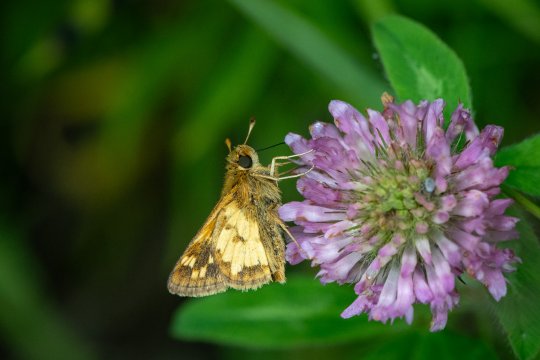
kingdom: Animalia
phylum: Arthropoda
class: Insecta
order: Lepidoptera
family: Hesperiidae
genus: Polites
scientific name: Polites coras
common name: Peck's Skipper
